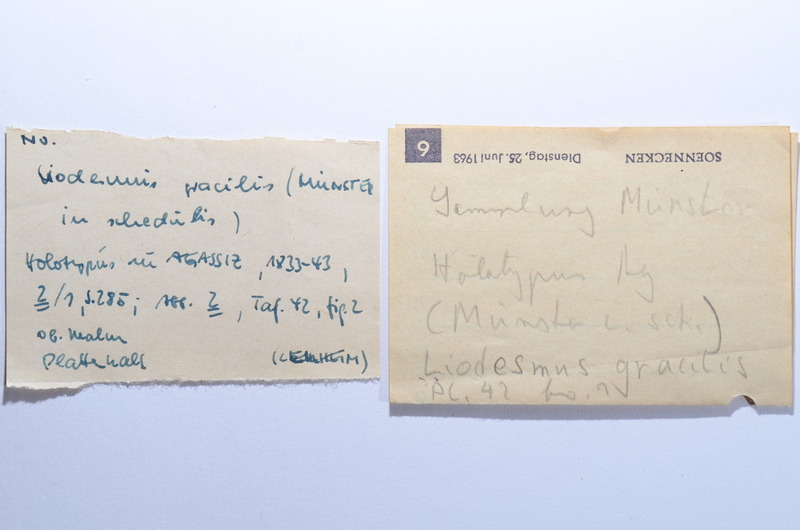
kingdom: Animalia
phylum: Chordata
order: Amiiformes
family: Liodesmidae
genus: Liodesmus
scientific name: Liodesmus gracilis
